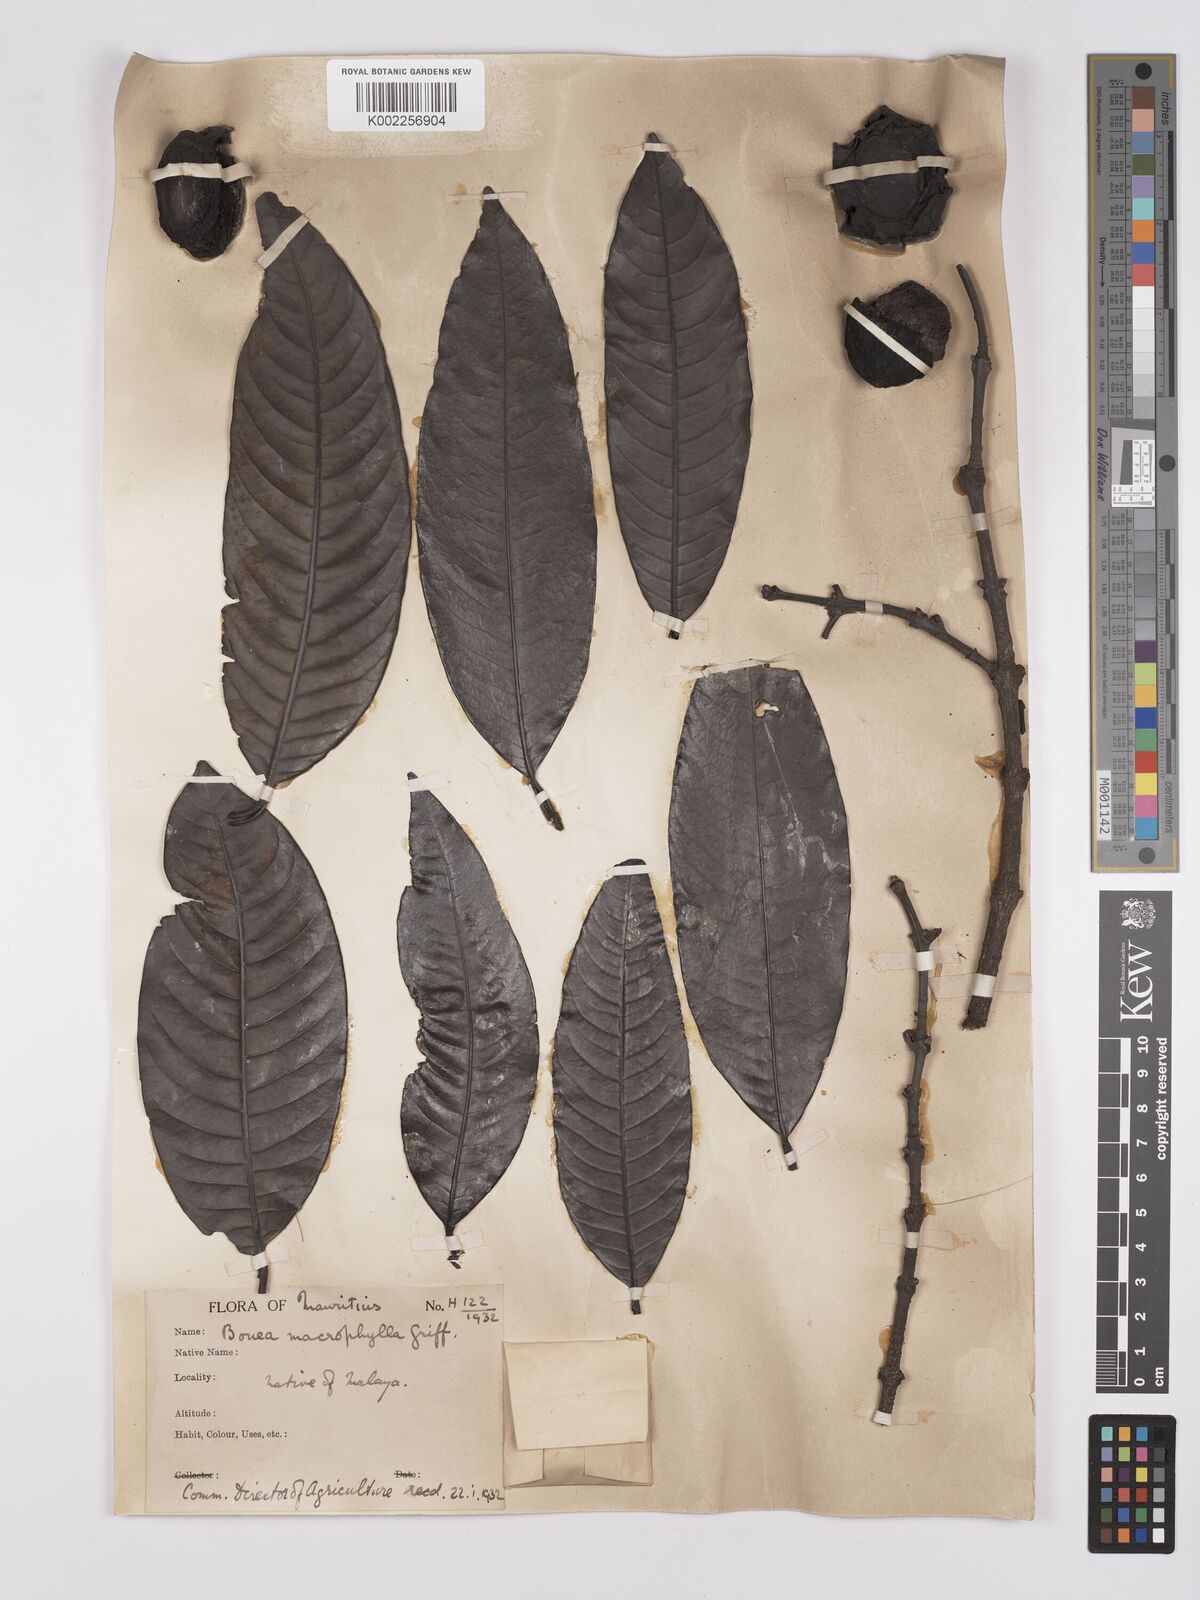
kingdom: Plantae
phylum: Tracheophyta
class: Magnoliopsida
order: Sapindales
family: Anacardiaceae
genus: Bouea
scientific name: Bouea macrophylla
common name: Gandaria
